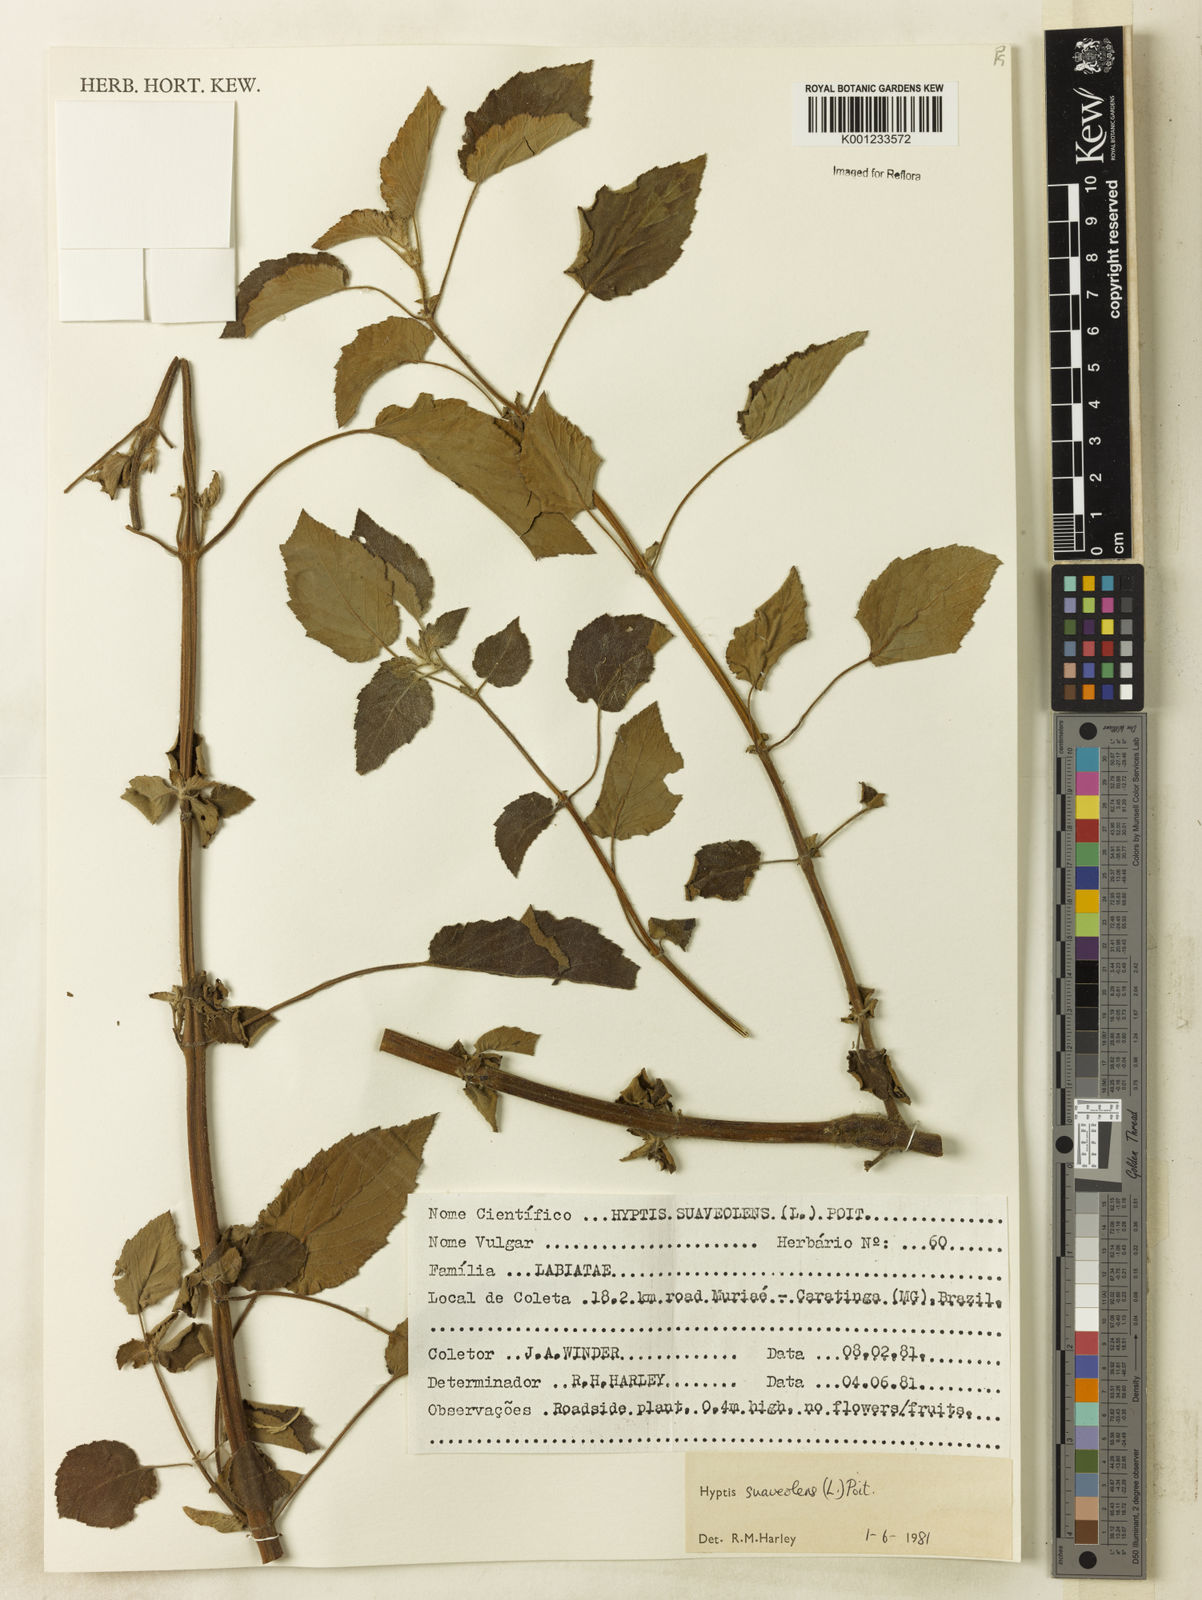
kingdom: Plantae
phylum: Tracheophyta
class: Magnoliopsida
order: Lamiales
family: Lamiaceae
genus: Mesosphaerum
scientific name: Mesosphaerum suaveolens
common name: Pignut
